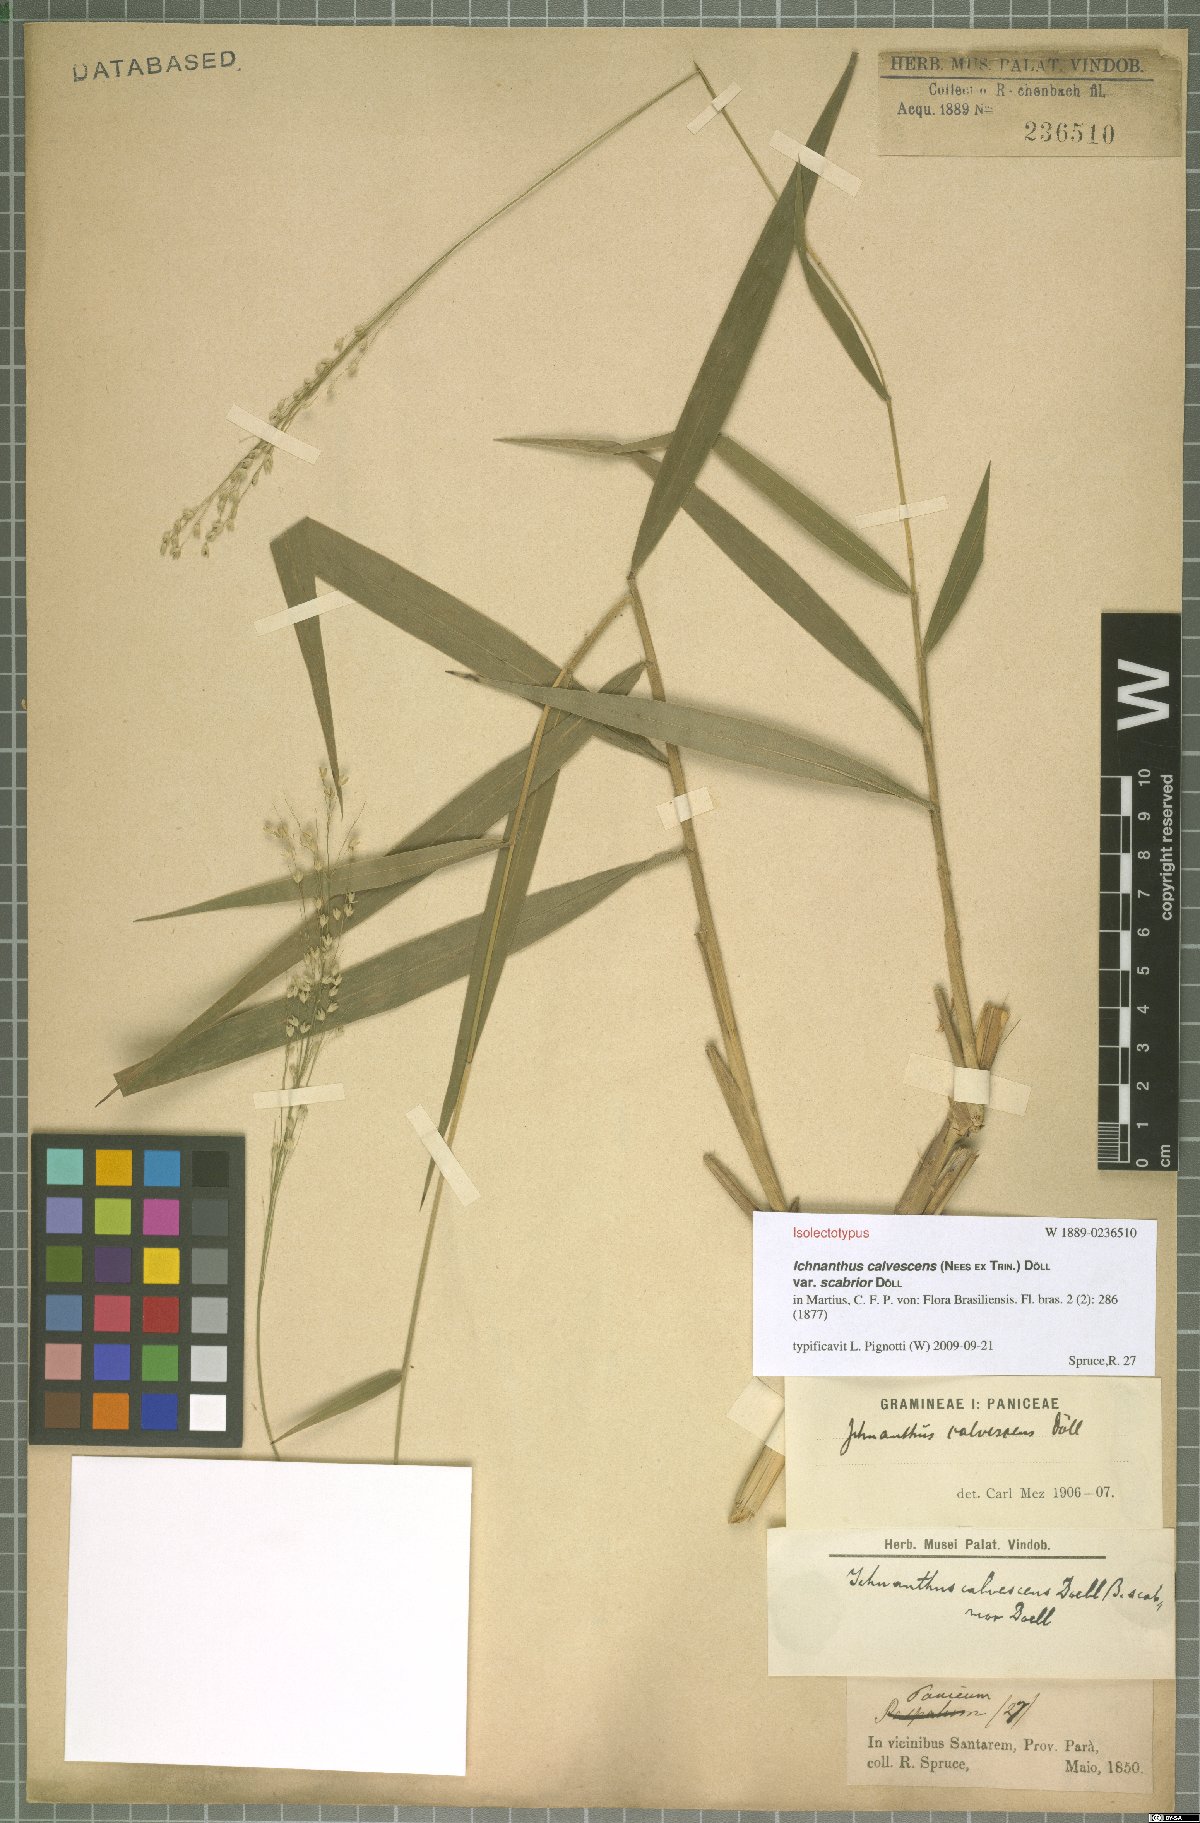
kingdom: Plantae
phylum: Tracheophyta
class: Liliopsida
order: Poales
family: Poaceae
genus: Ichnanthus
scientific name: Ichnanthus calvescens
